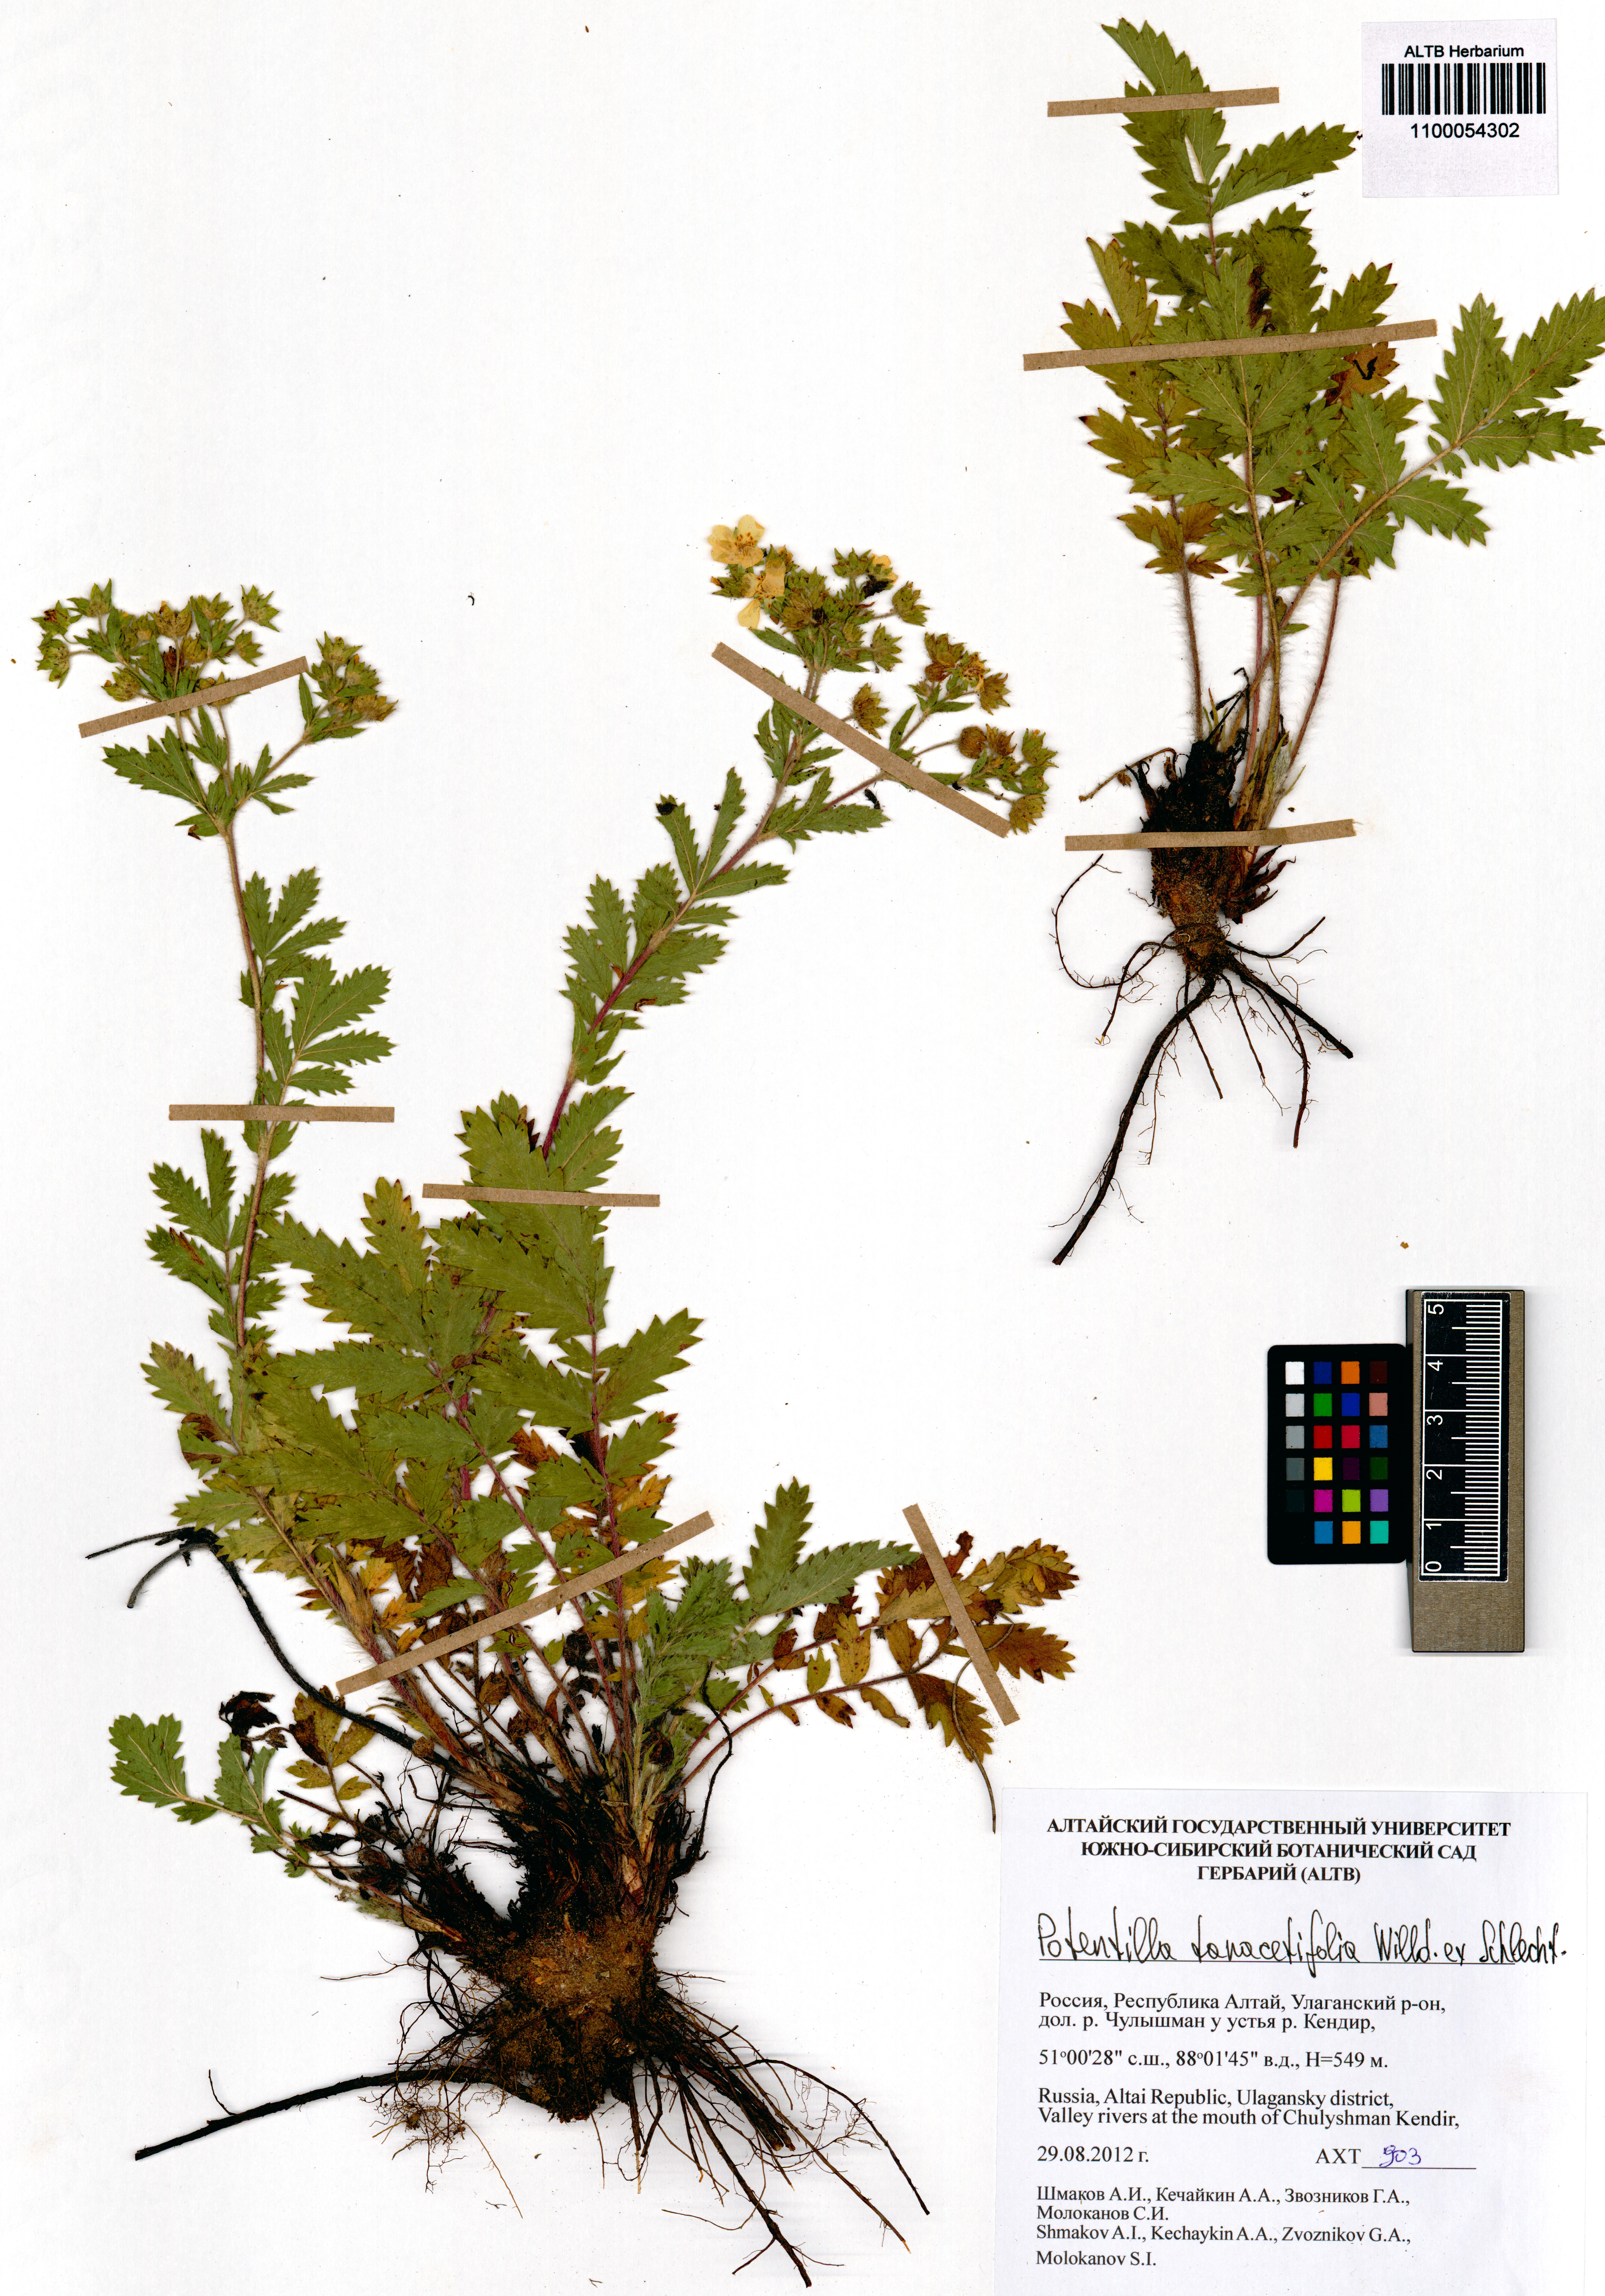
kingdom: Plantae
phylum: Tracheophyta
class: Magnoliopsida
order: Rosales
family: Rosaceae
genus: Potentilla
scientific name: Potentilla tanacetifolia
